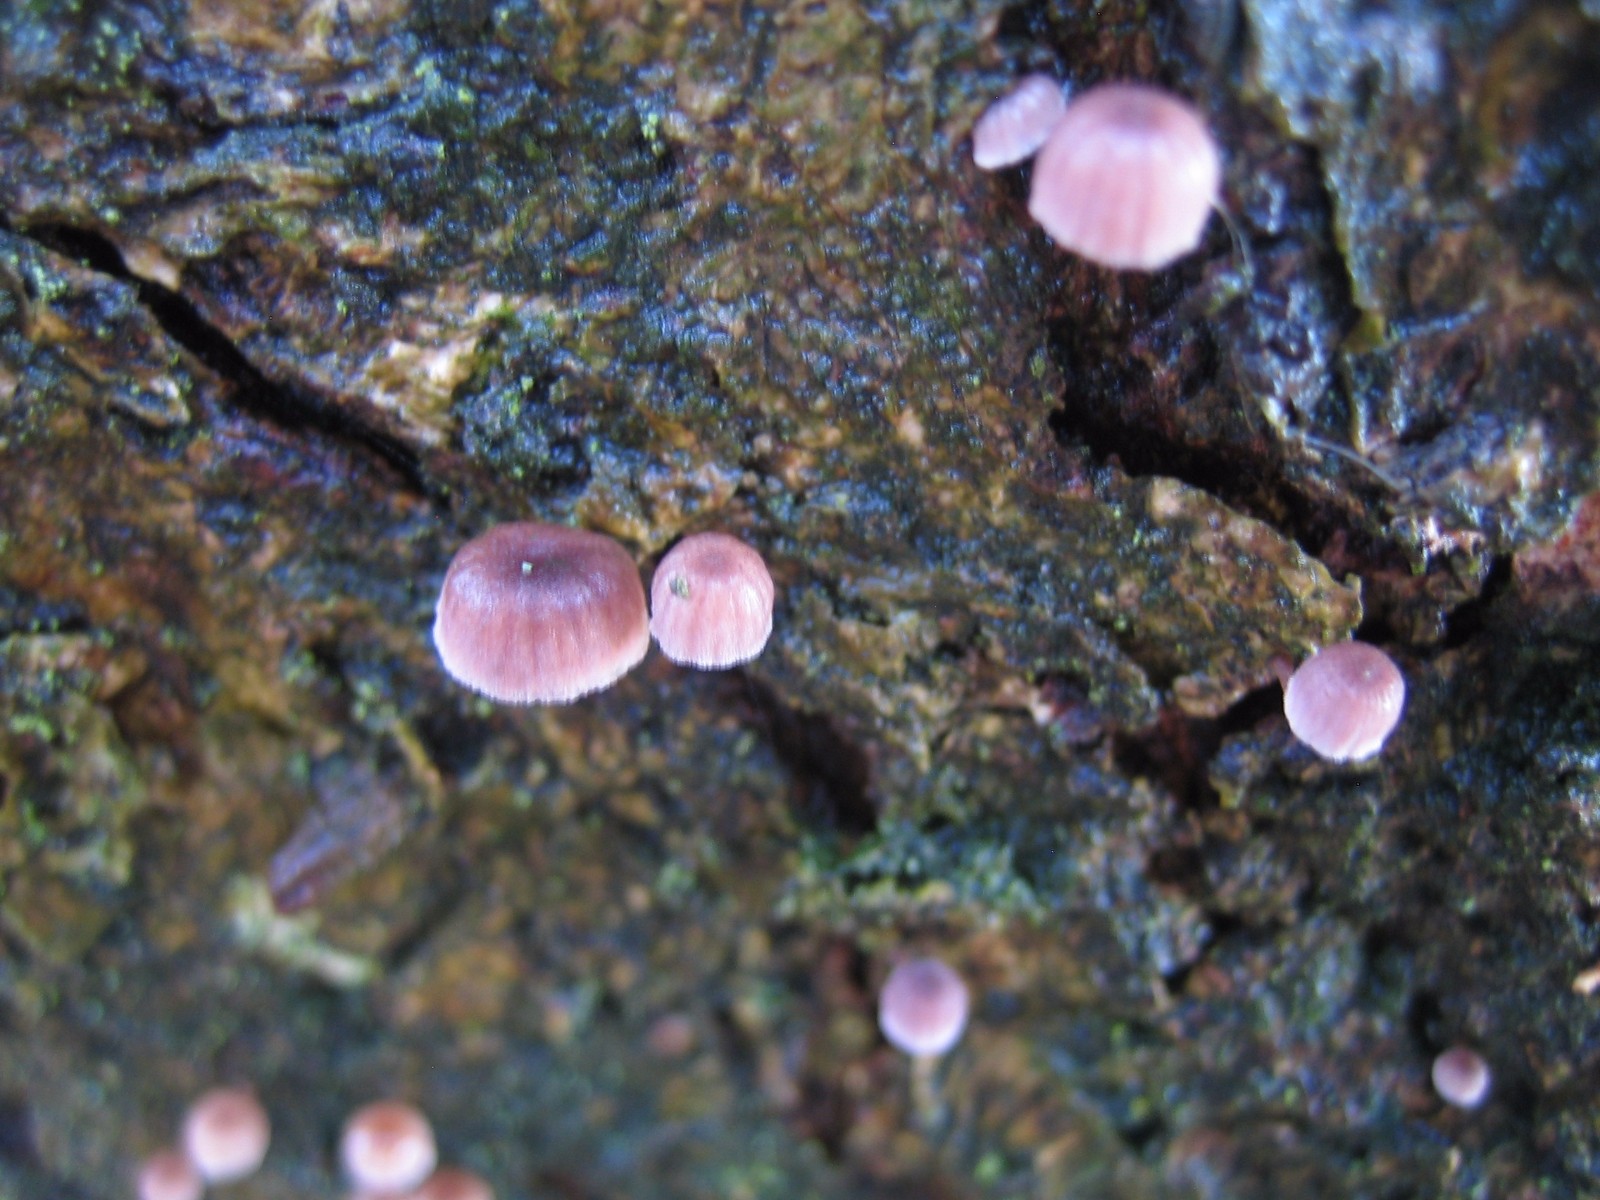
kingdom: Fungi
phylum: Basidiomycota
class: Agaricomycetes
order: Agaricales
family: Mycenaceae
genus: Mycena
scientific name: Mycena meliigena
